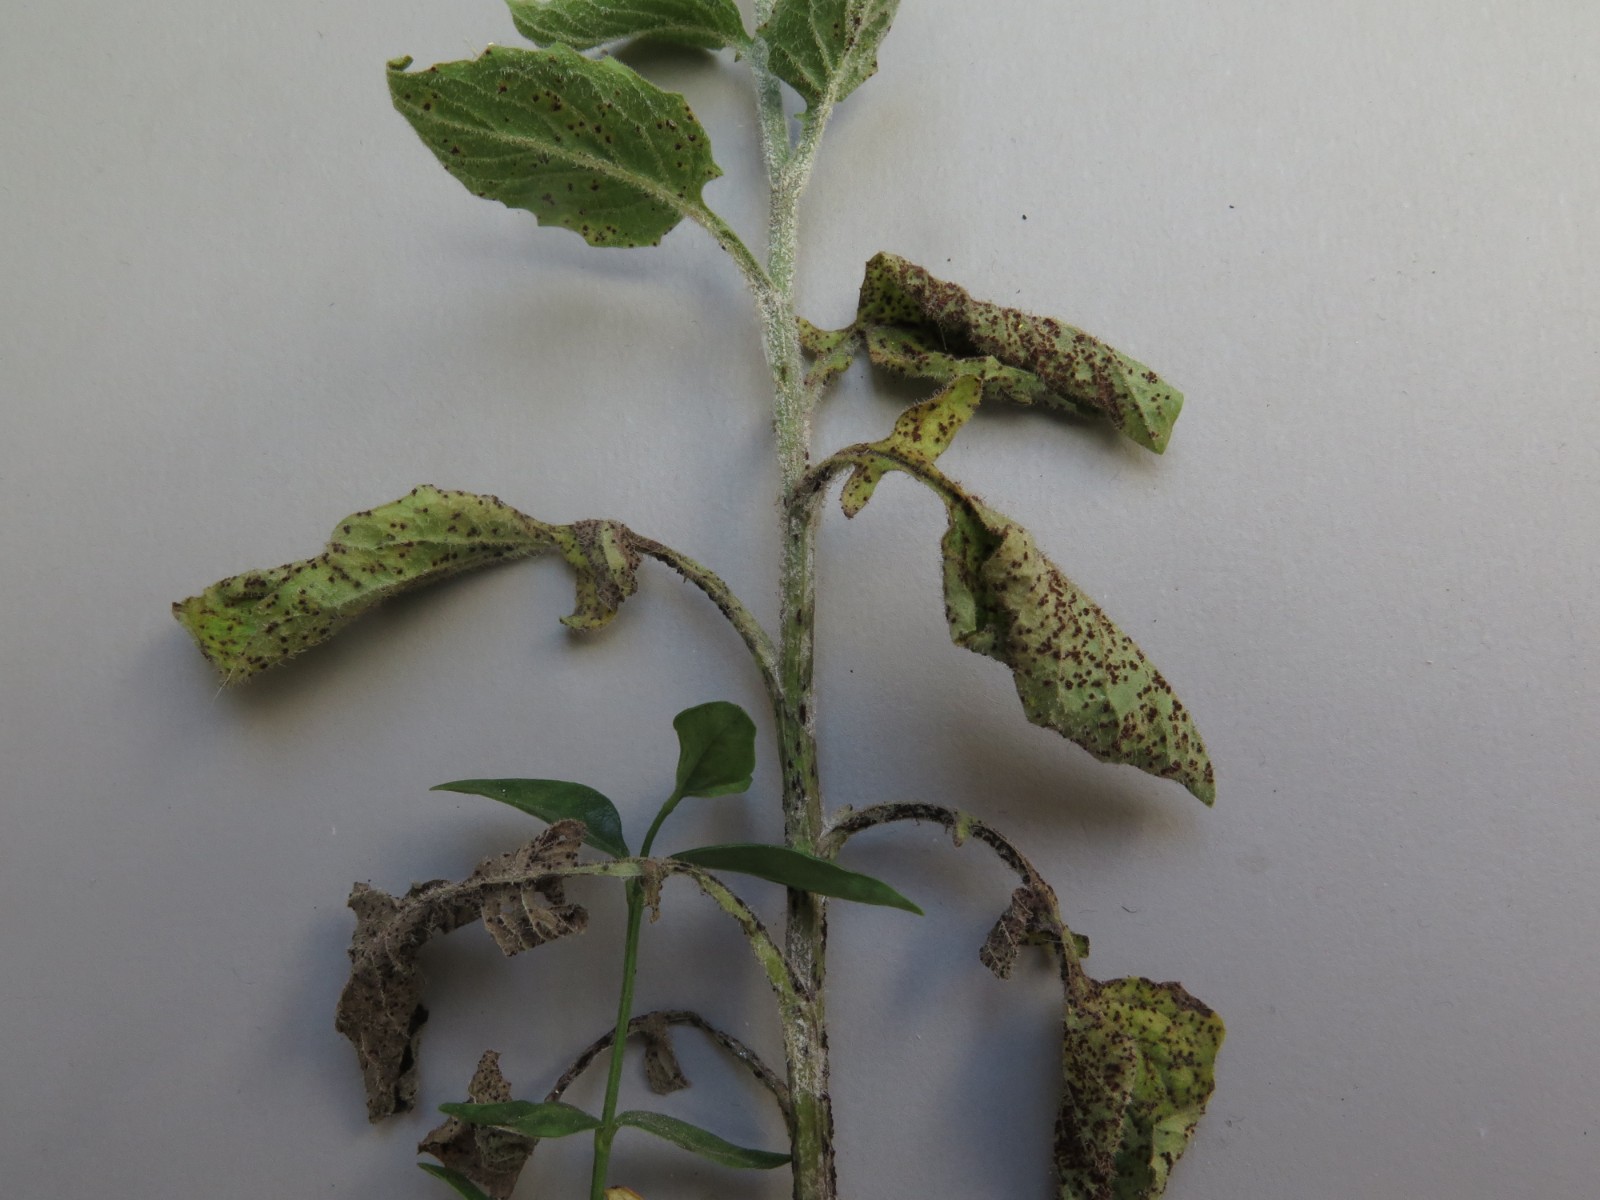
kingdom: Fungi
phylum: Basidiomycota
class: Pucciniomycetes
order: Pucciniales
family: Pucciniaceae
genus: Puccinia
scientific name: Puccinia lapsanae
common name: Nipplewort rust
